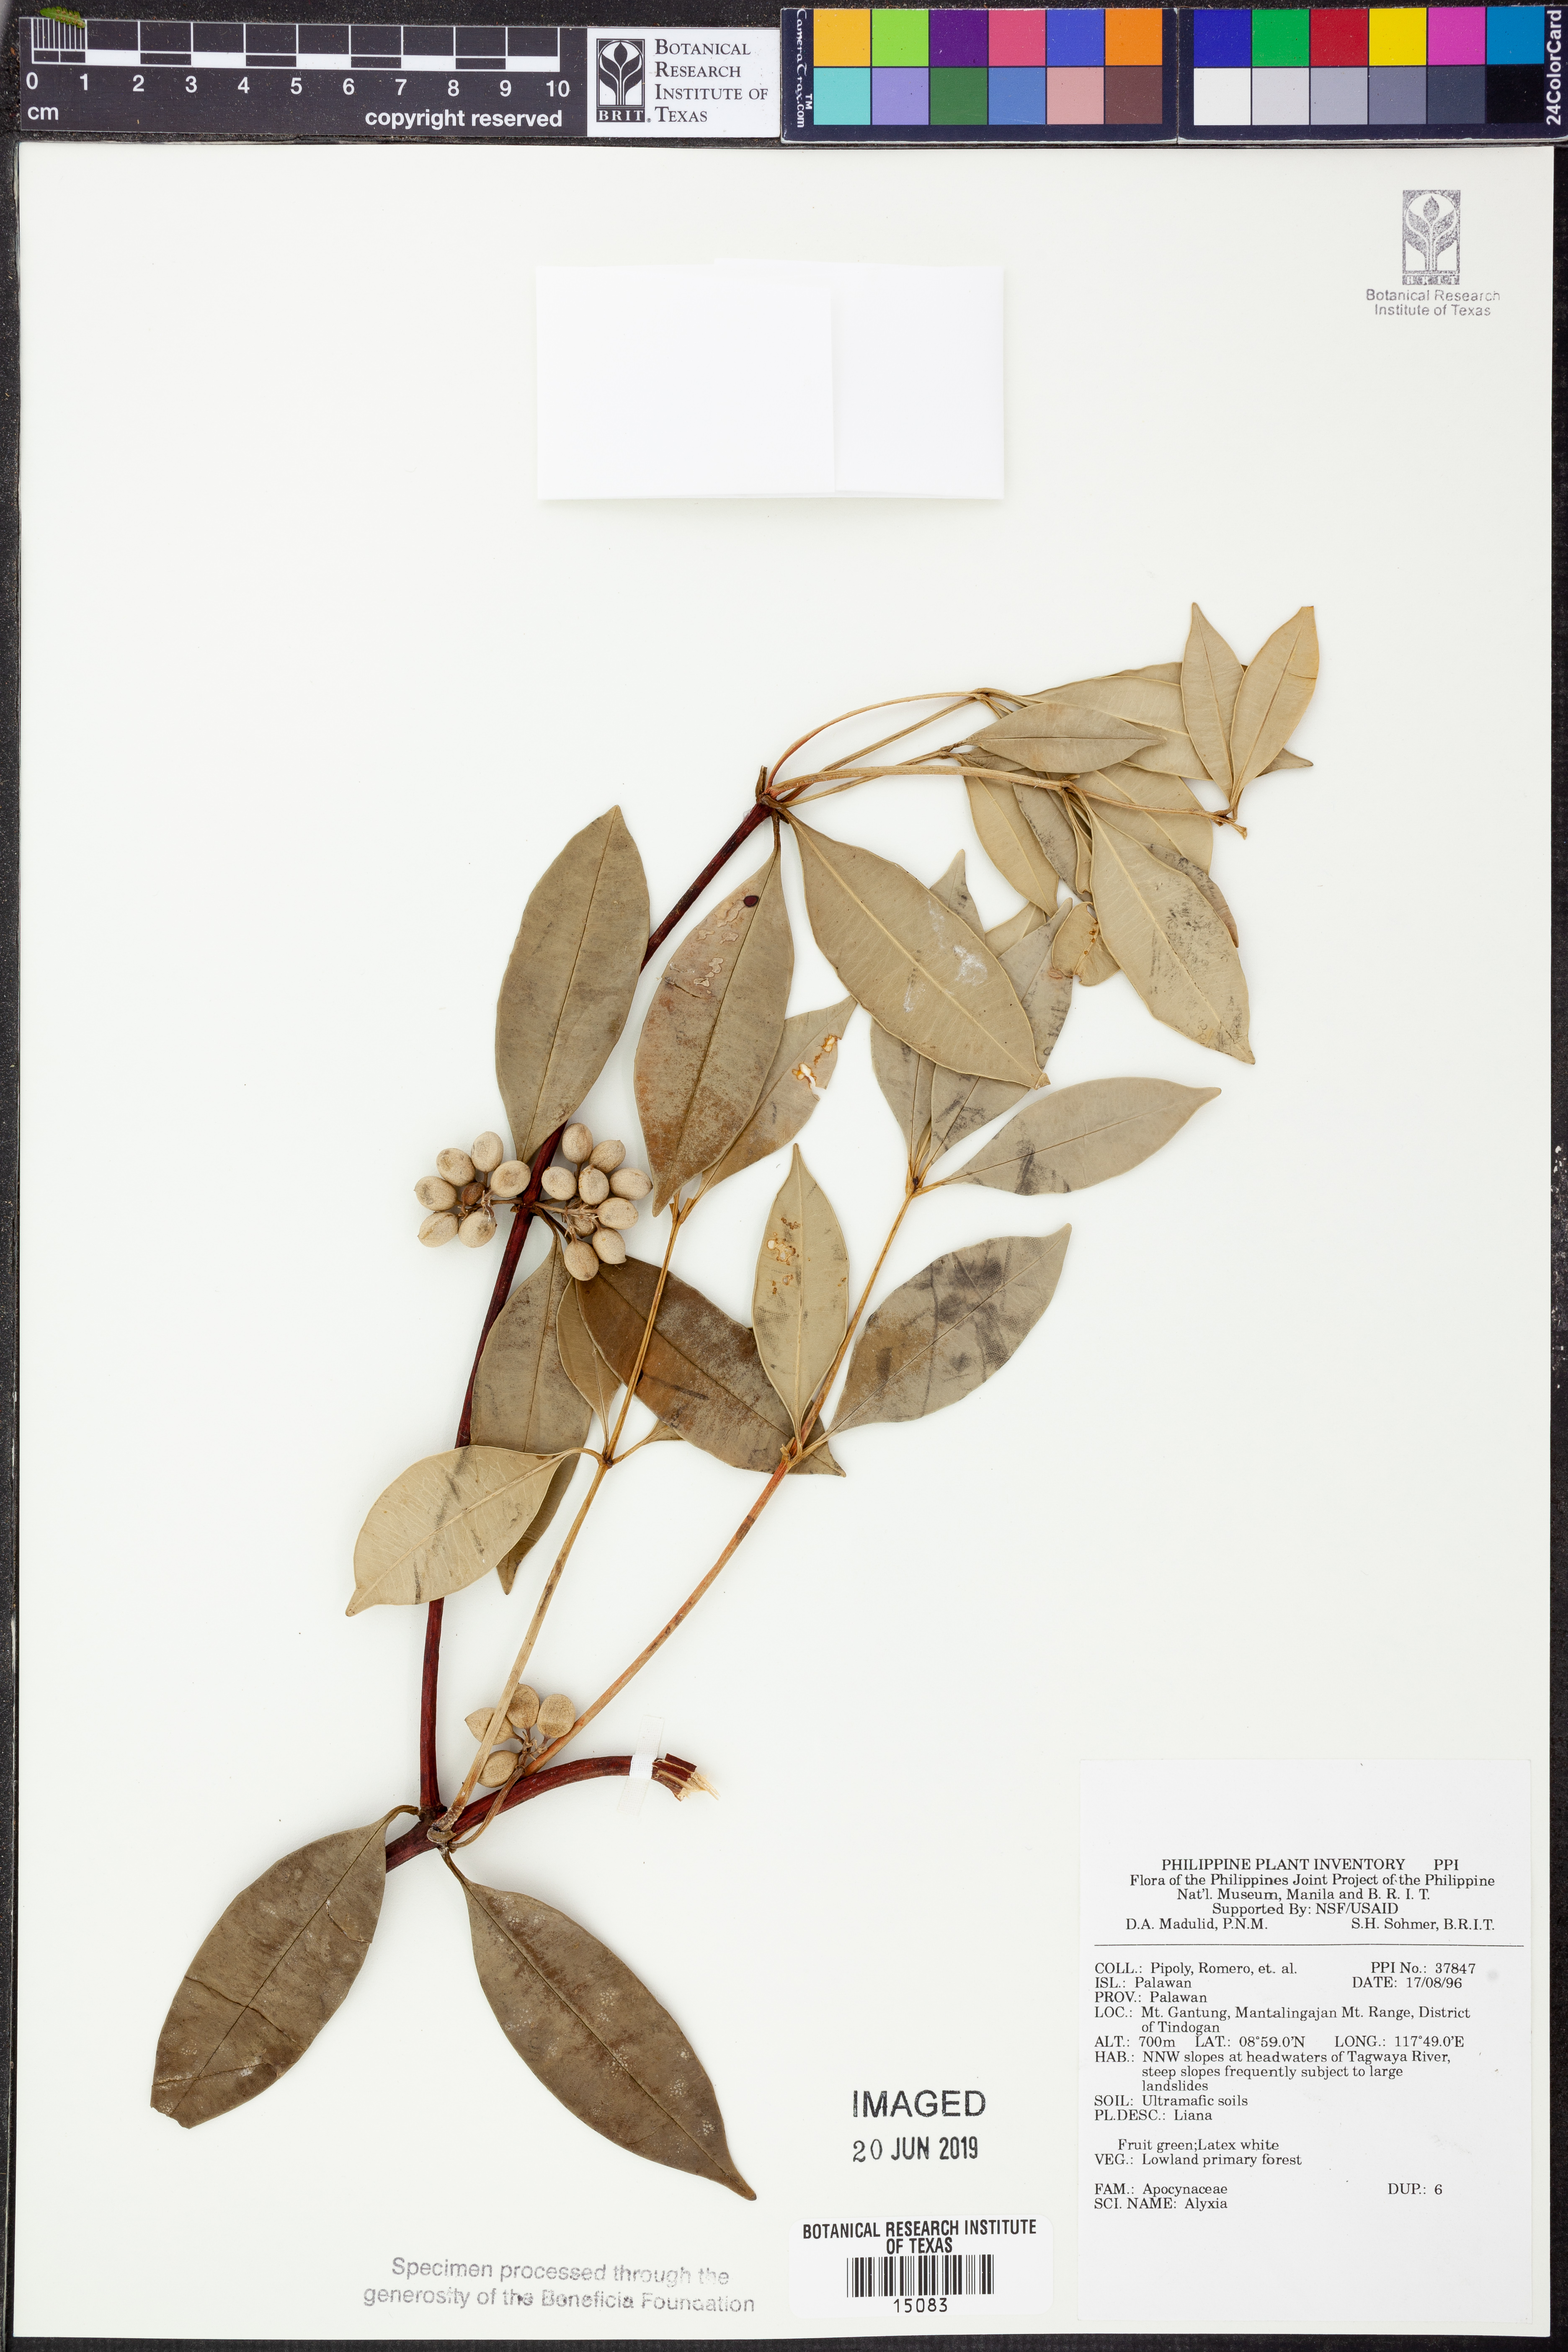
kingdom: Plantae
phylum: Tracheophyta
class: Magnoliopsida
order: Gentianales
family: Apocynaceae
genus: Alyxia
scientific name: Alyxia
